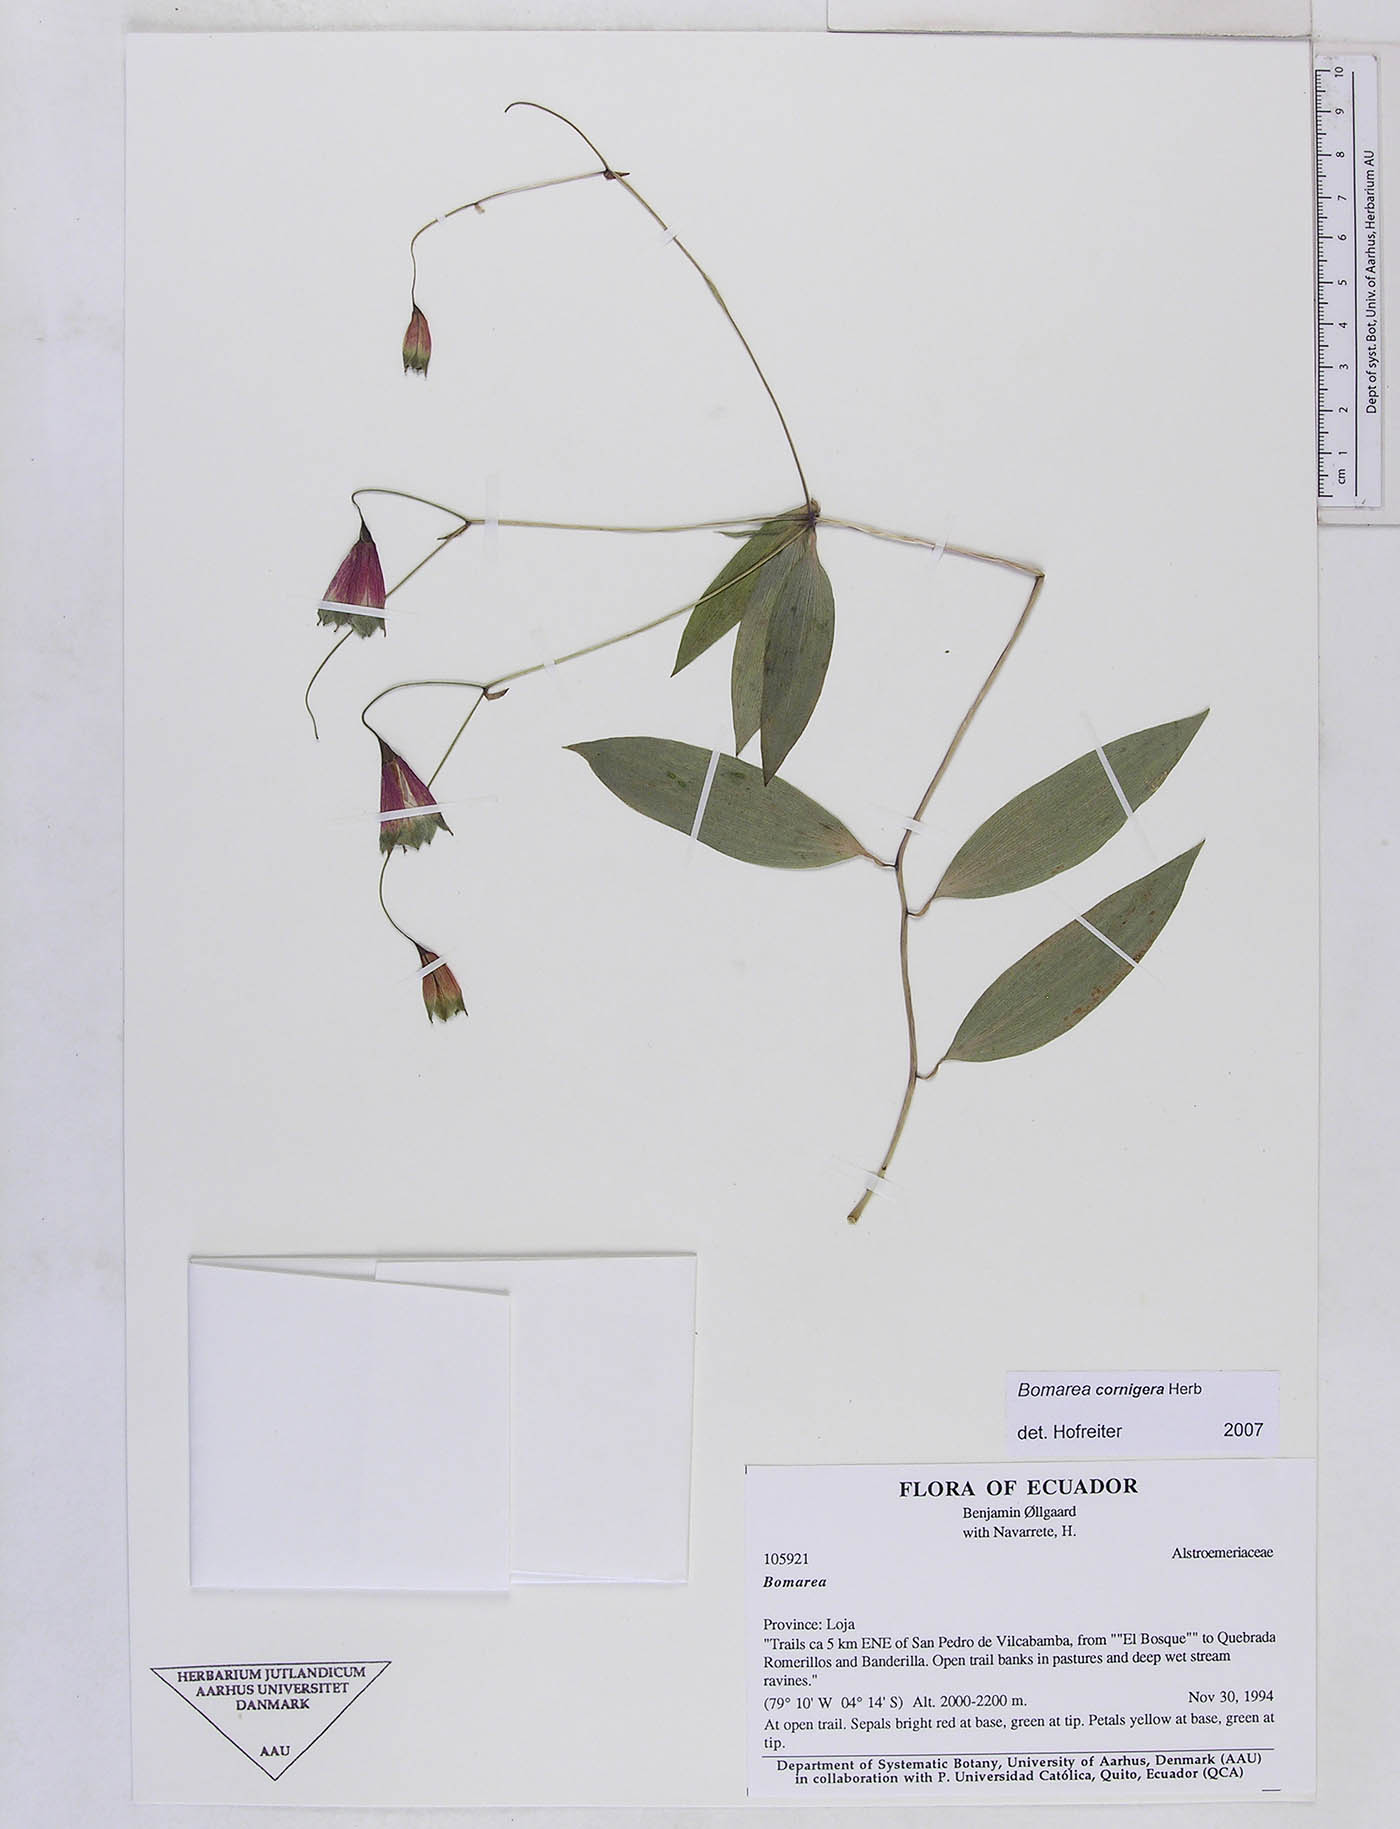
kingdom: Plantae
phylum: Tracheophyta
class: Liliopsida
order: Liliales
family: Alstroemeriaceae
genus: Bomarea
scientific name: Bomarea cornigera
